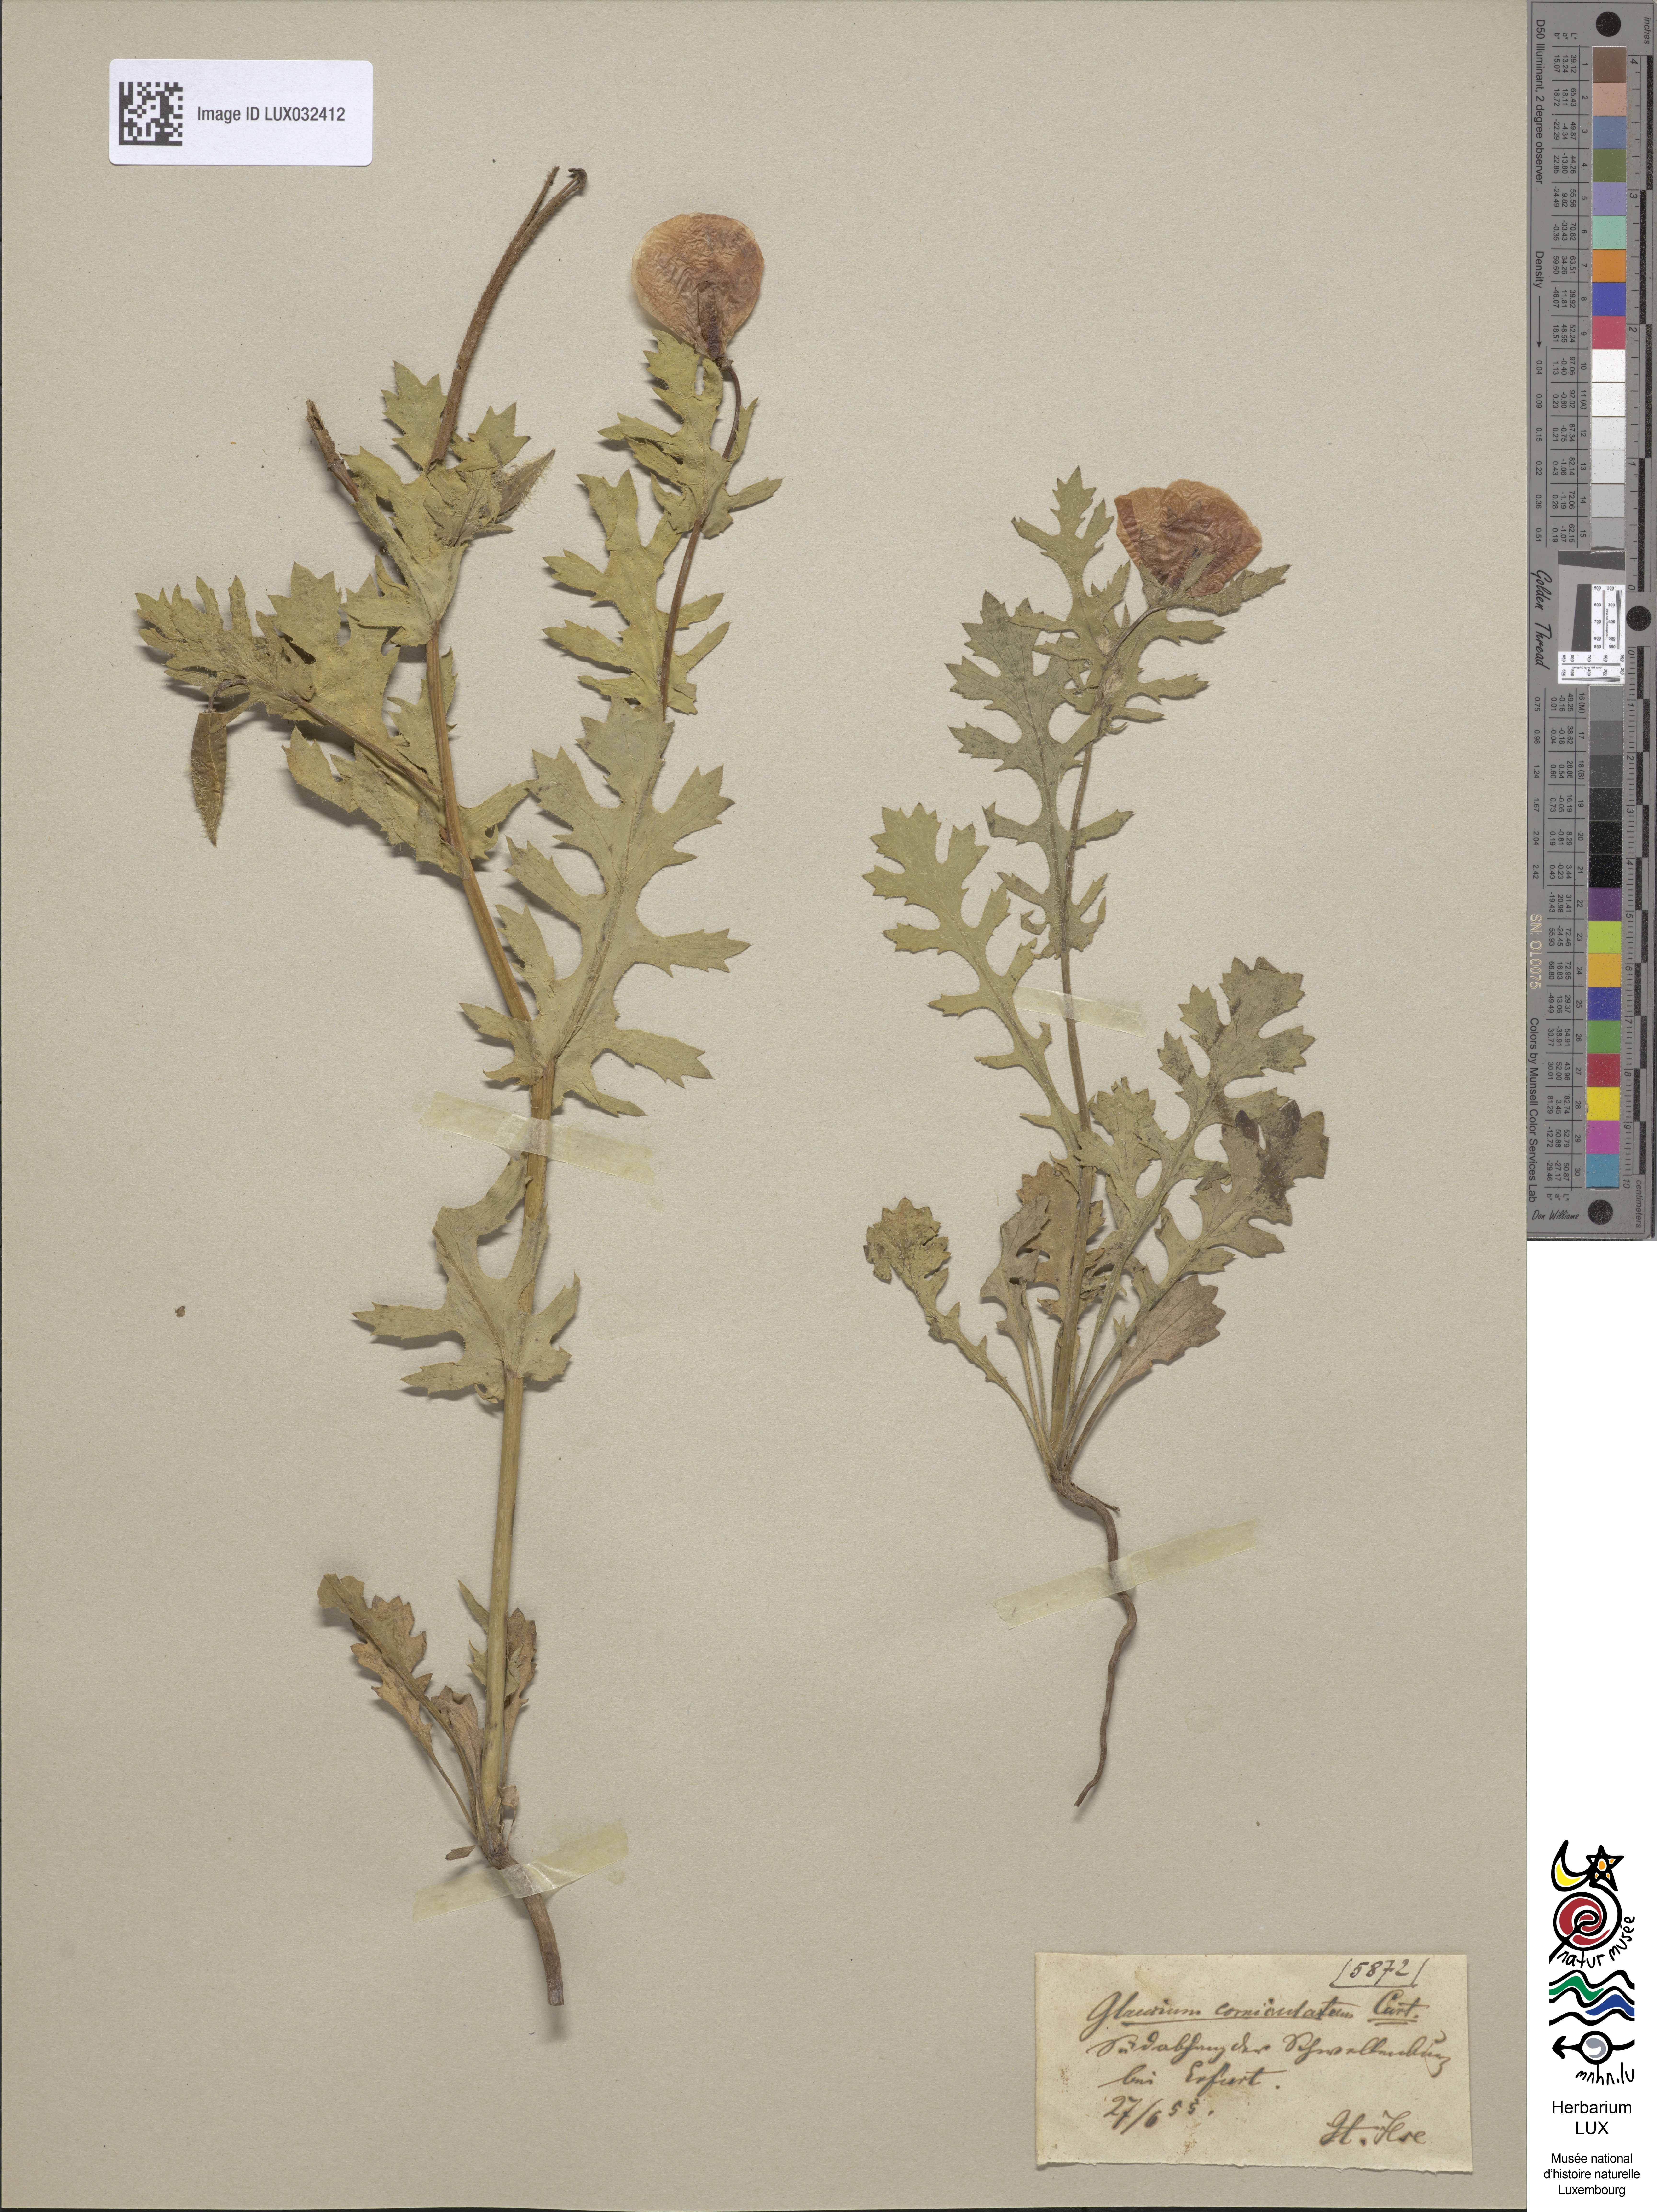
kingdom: Plantae
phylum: Tracheophyta
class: Magnoliopsida
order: Ranunculales
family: Papaveraceae
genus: Glaucium
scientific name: Glaucium corniculatum
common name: Red horned-poppy
